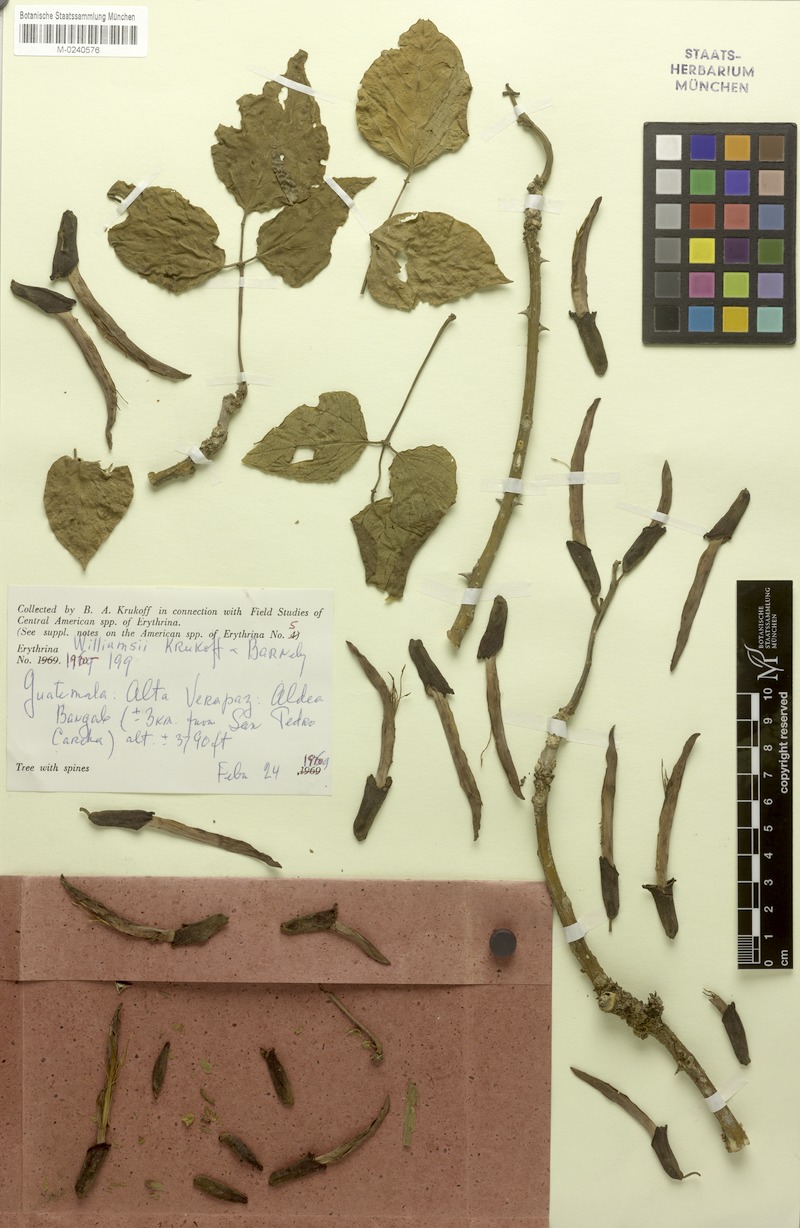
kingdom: Plantae
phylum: Tracheophyta
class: Magnoliopsida
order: Fabales
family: Fabaceae
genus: Erythrina
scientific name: Erythrina williamsii
